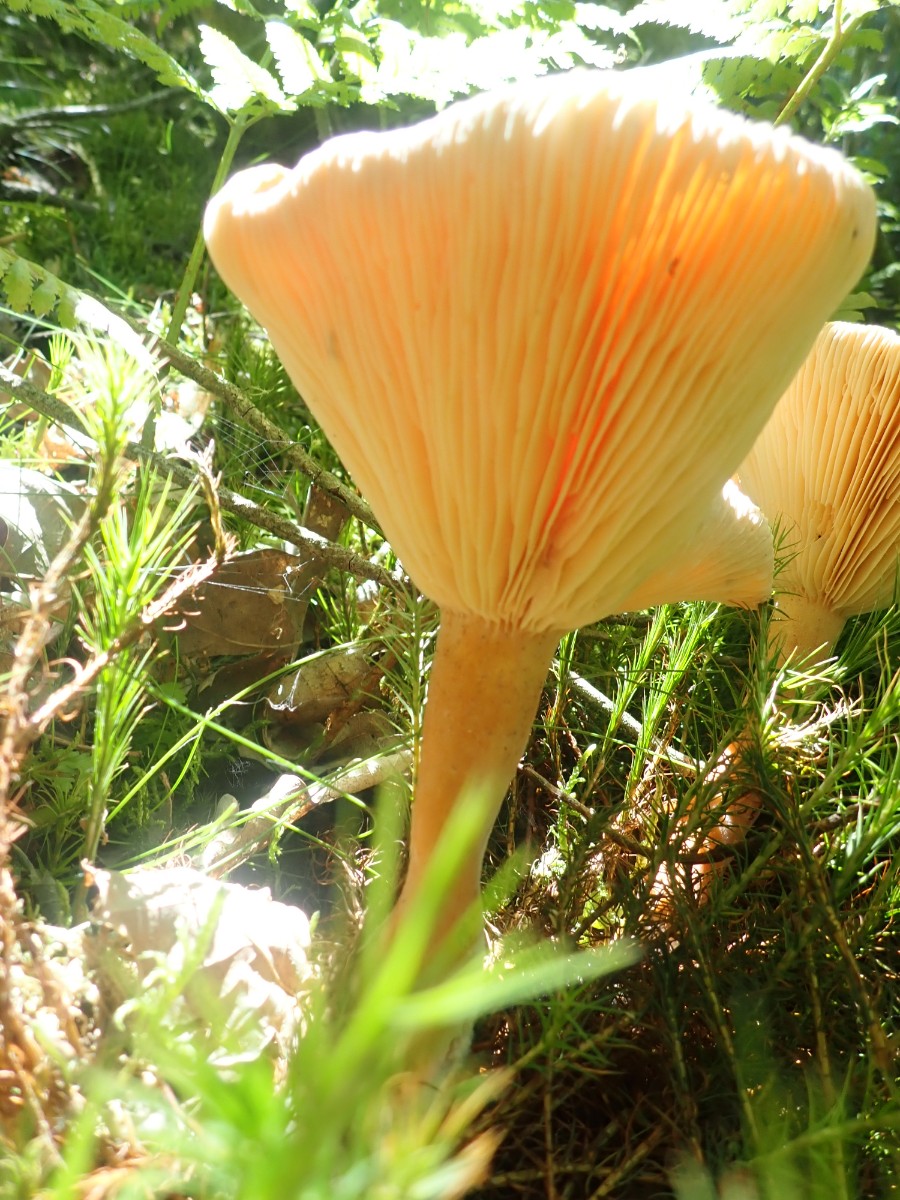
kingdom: Fungi
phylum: Basidiomycota
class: Agaricomycetes
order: Russulales
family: Russulaceae
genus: Lactarius
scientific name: Lactarius helvus
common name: mose-mælkehat
